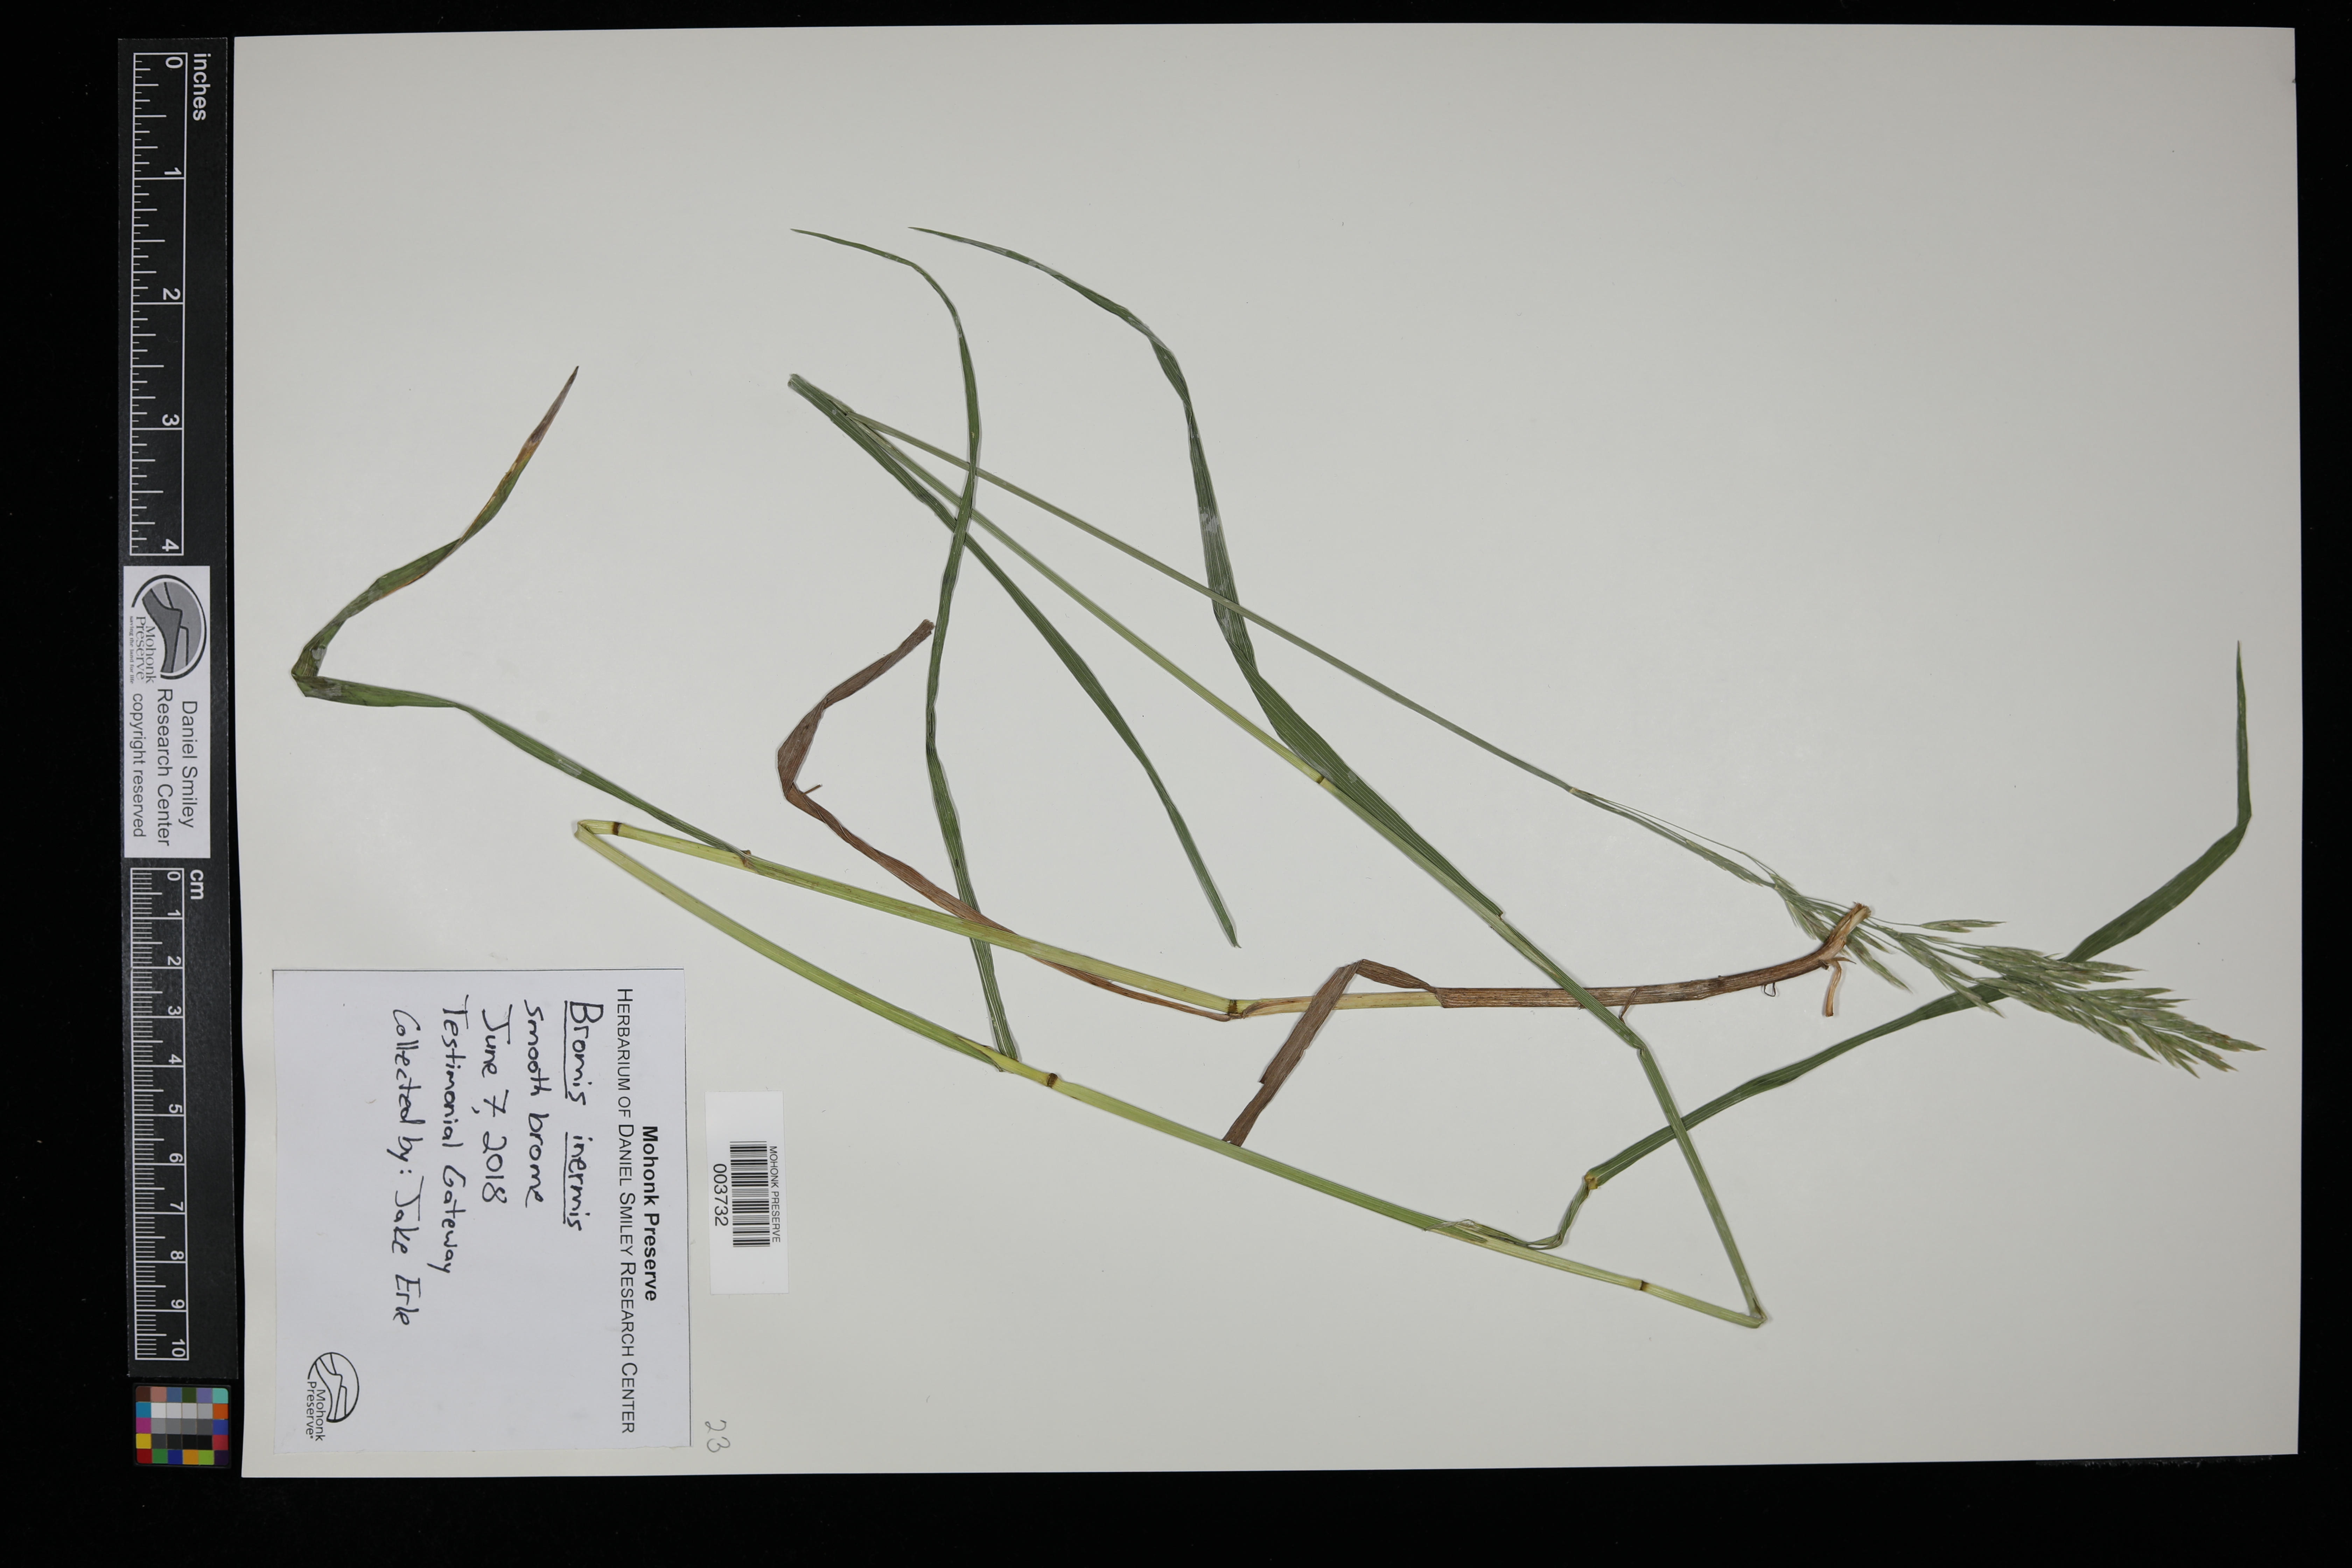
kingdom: Plantae
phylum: Tracheophyta
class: Liliopsida
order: Poales
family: Poaceae
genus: Bromus
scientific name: Bromus inermis
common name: Smooth brome
